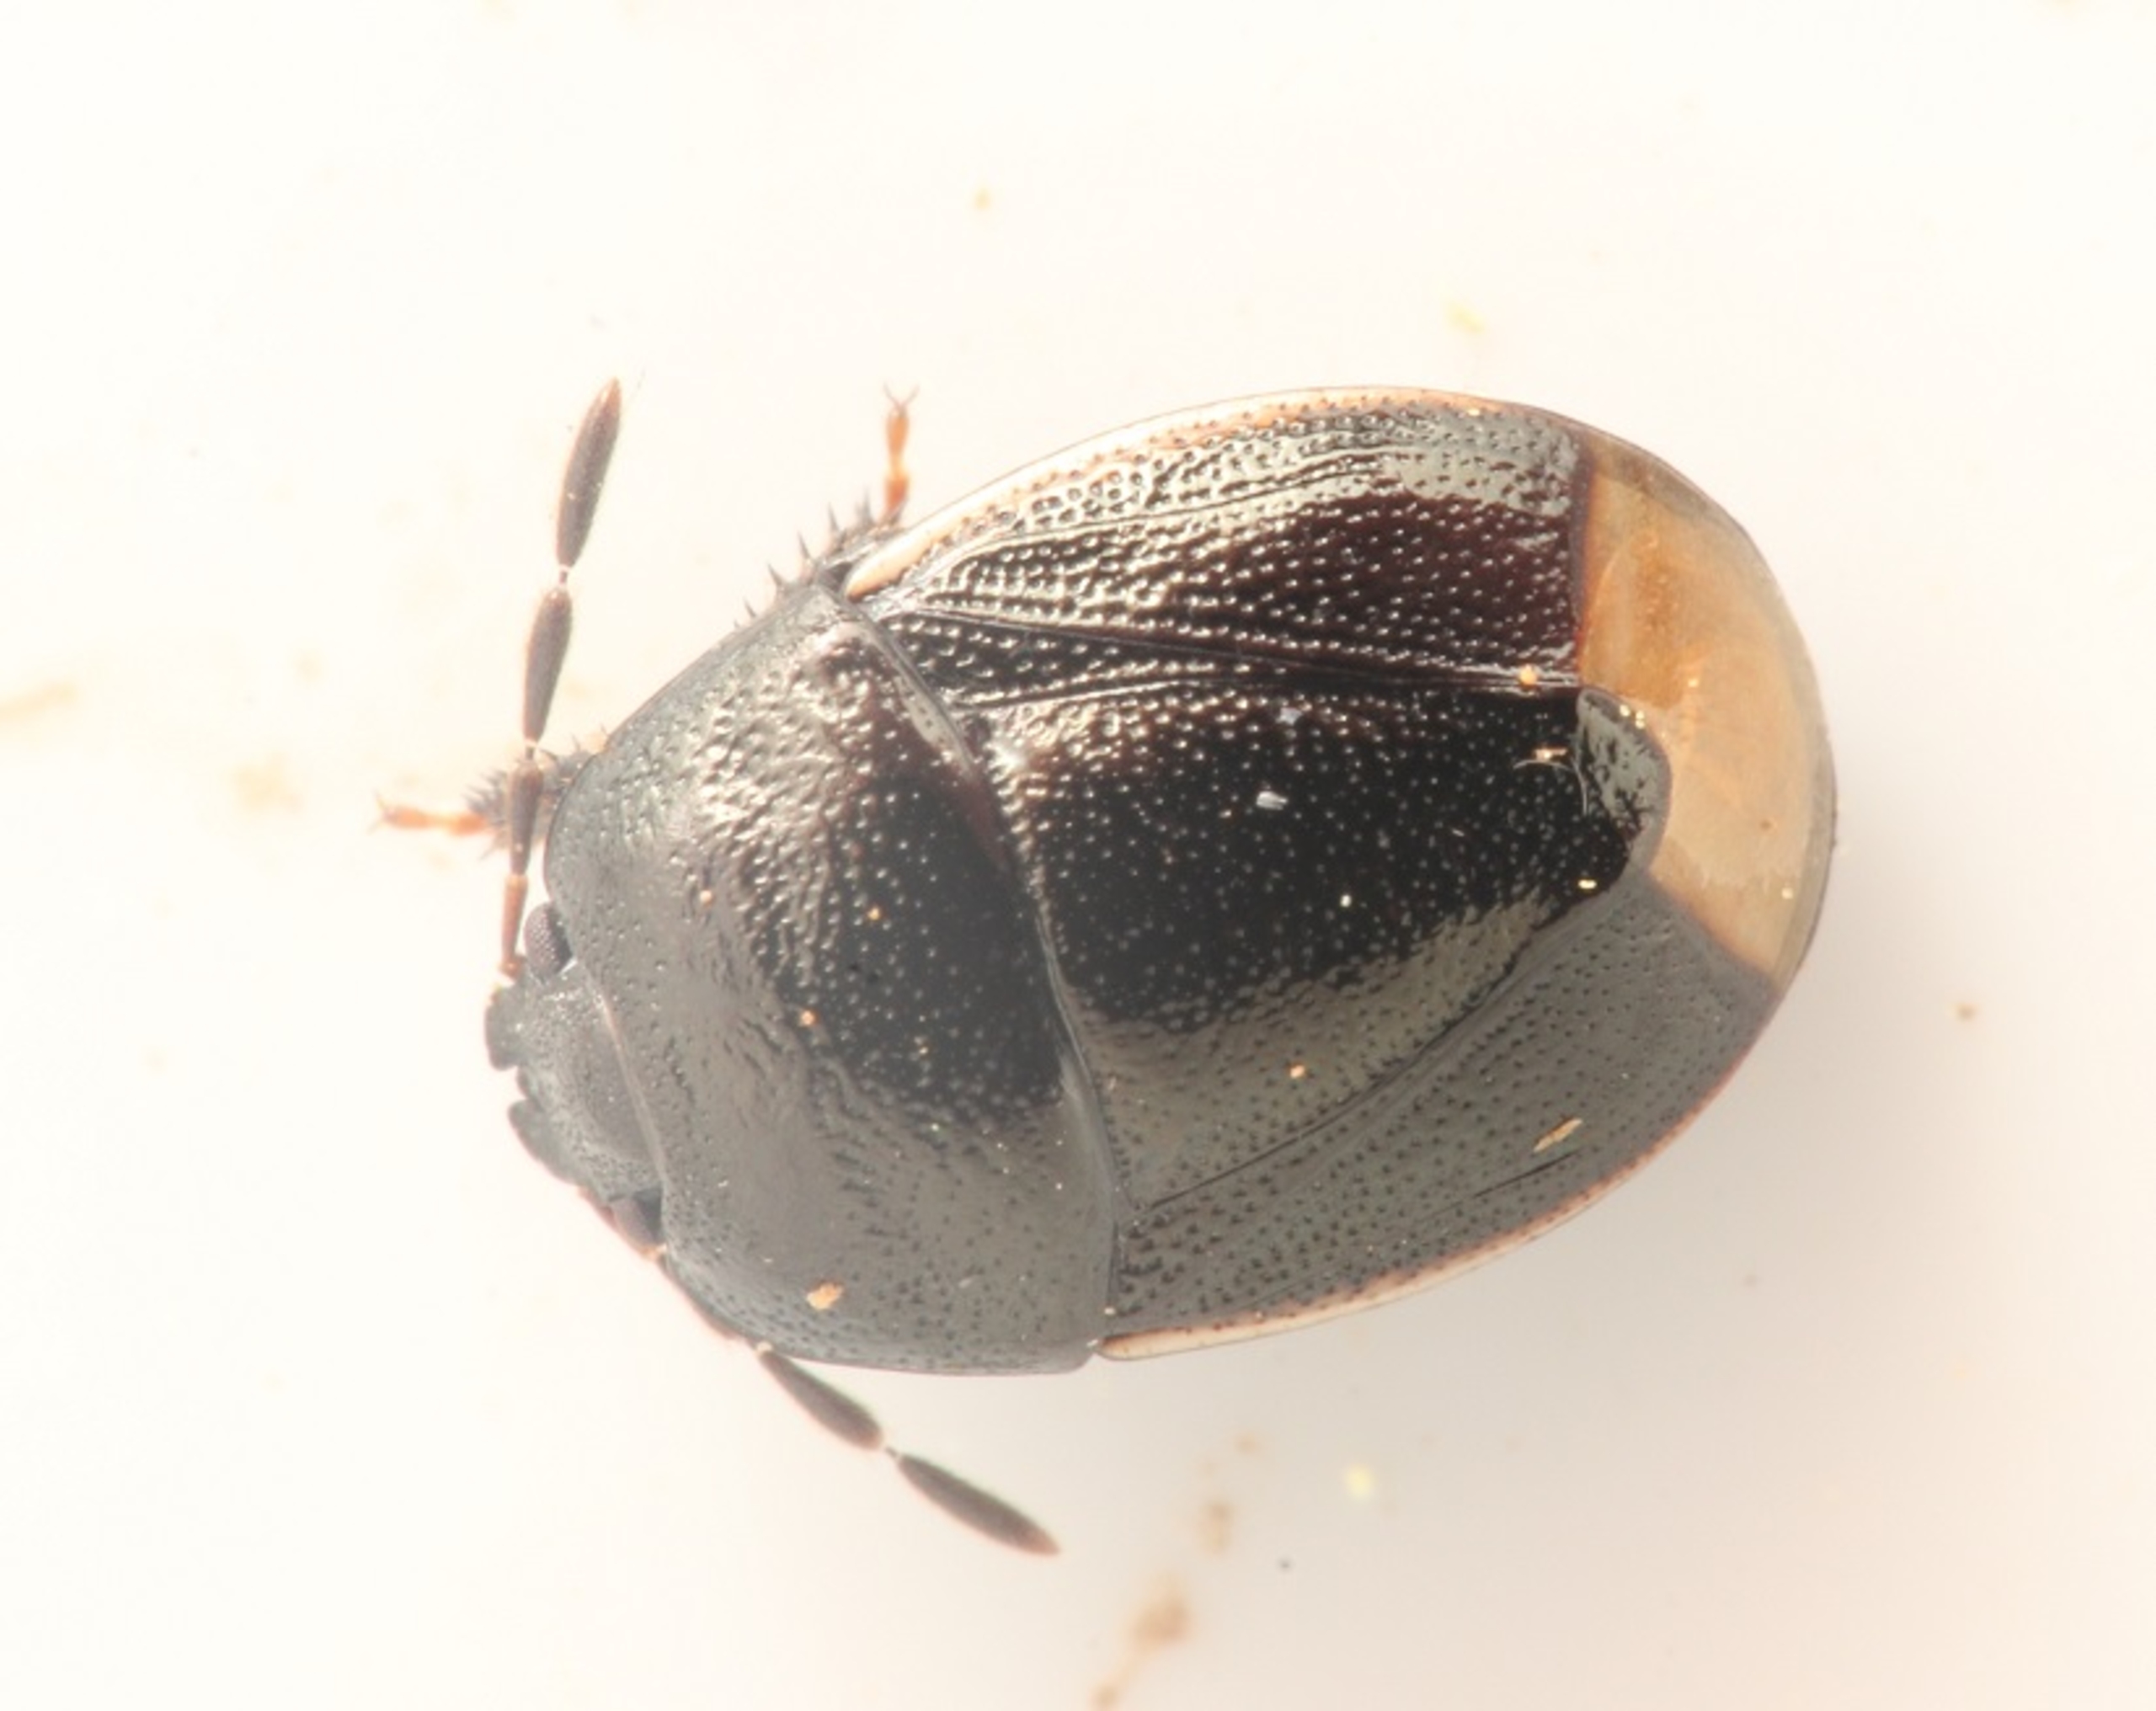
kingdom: Animalia
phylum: Arthropoda
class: Insecta
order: Hemiptera
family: Cydnidae
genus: Legnotus
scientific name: Legnotus limbosus
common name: Hvidrandet tornben
